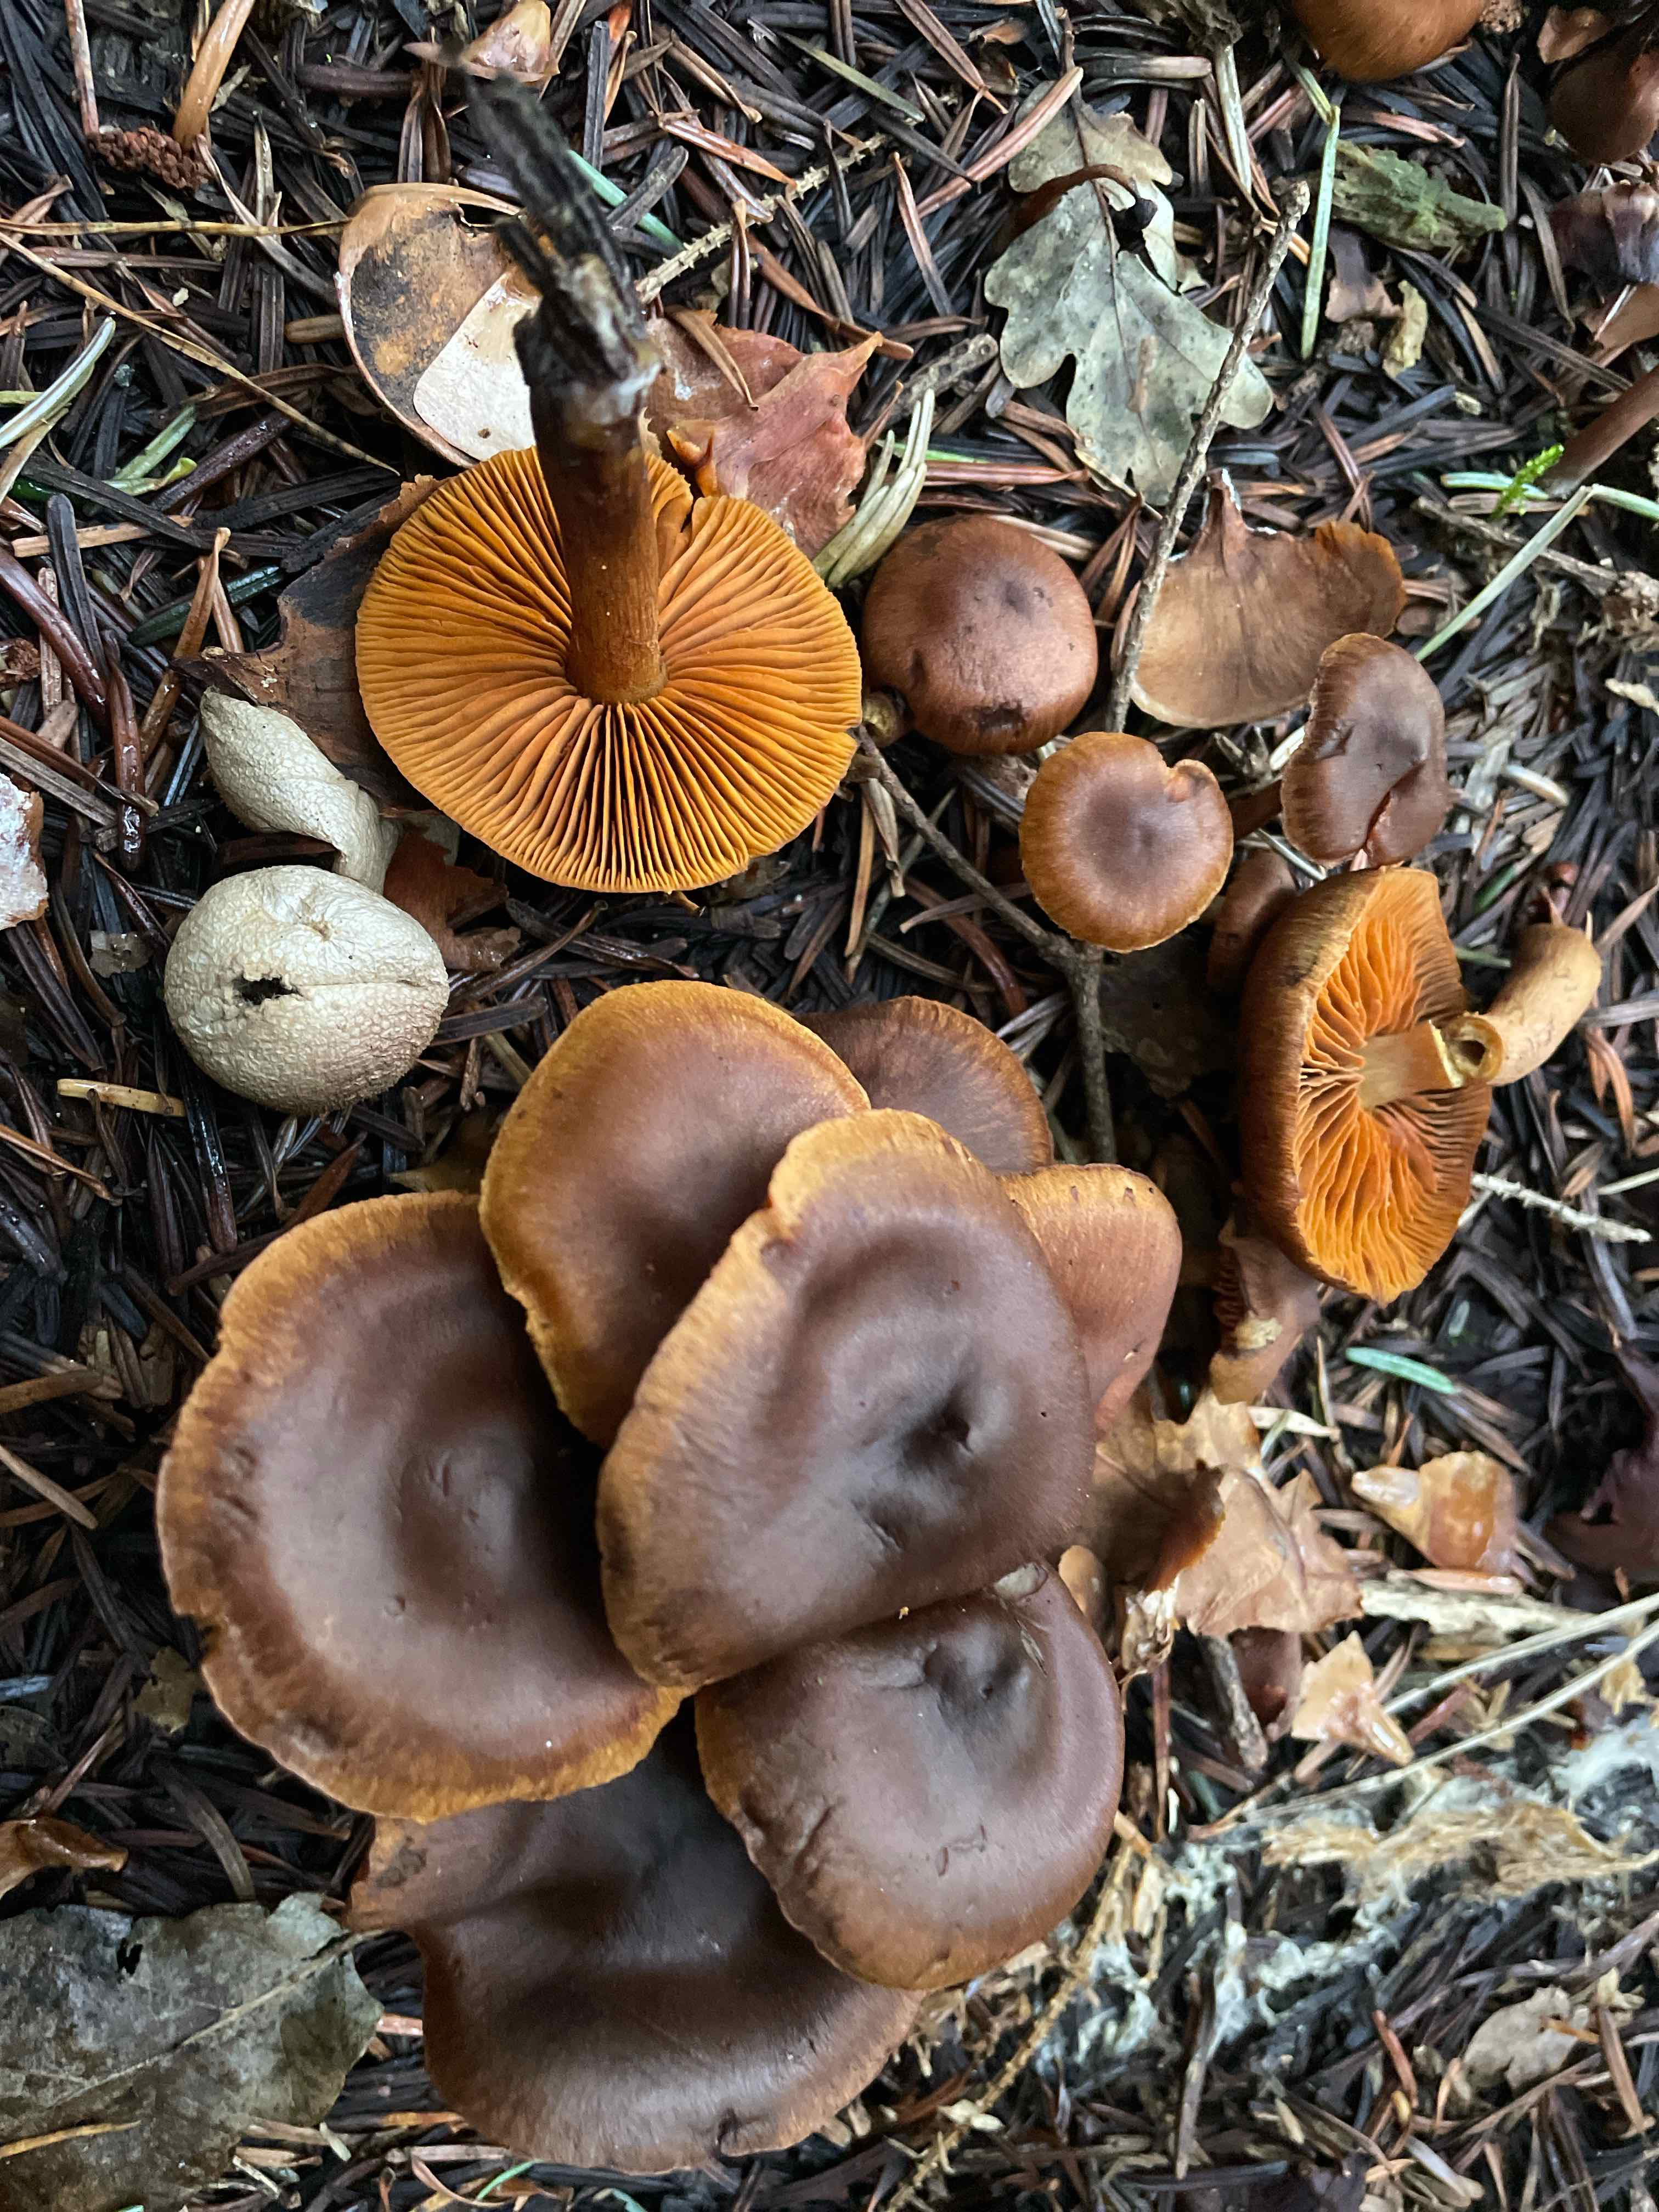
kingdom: Fungi
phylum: Basidiomycota
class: Agaricomycetes
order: Agaricales
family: Cortinariaceae
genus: Cortinarius
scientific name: Cortinarius malicorius
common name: grønkødet slørhat
